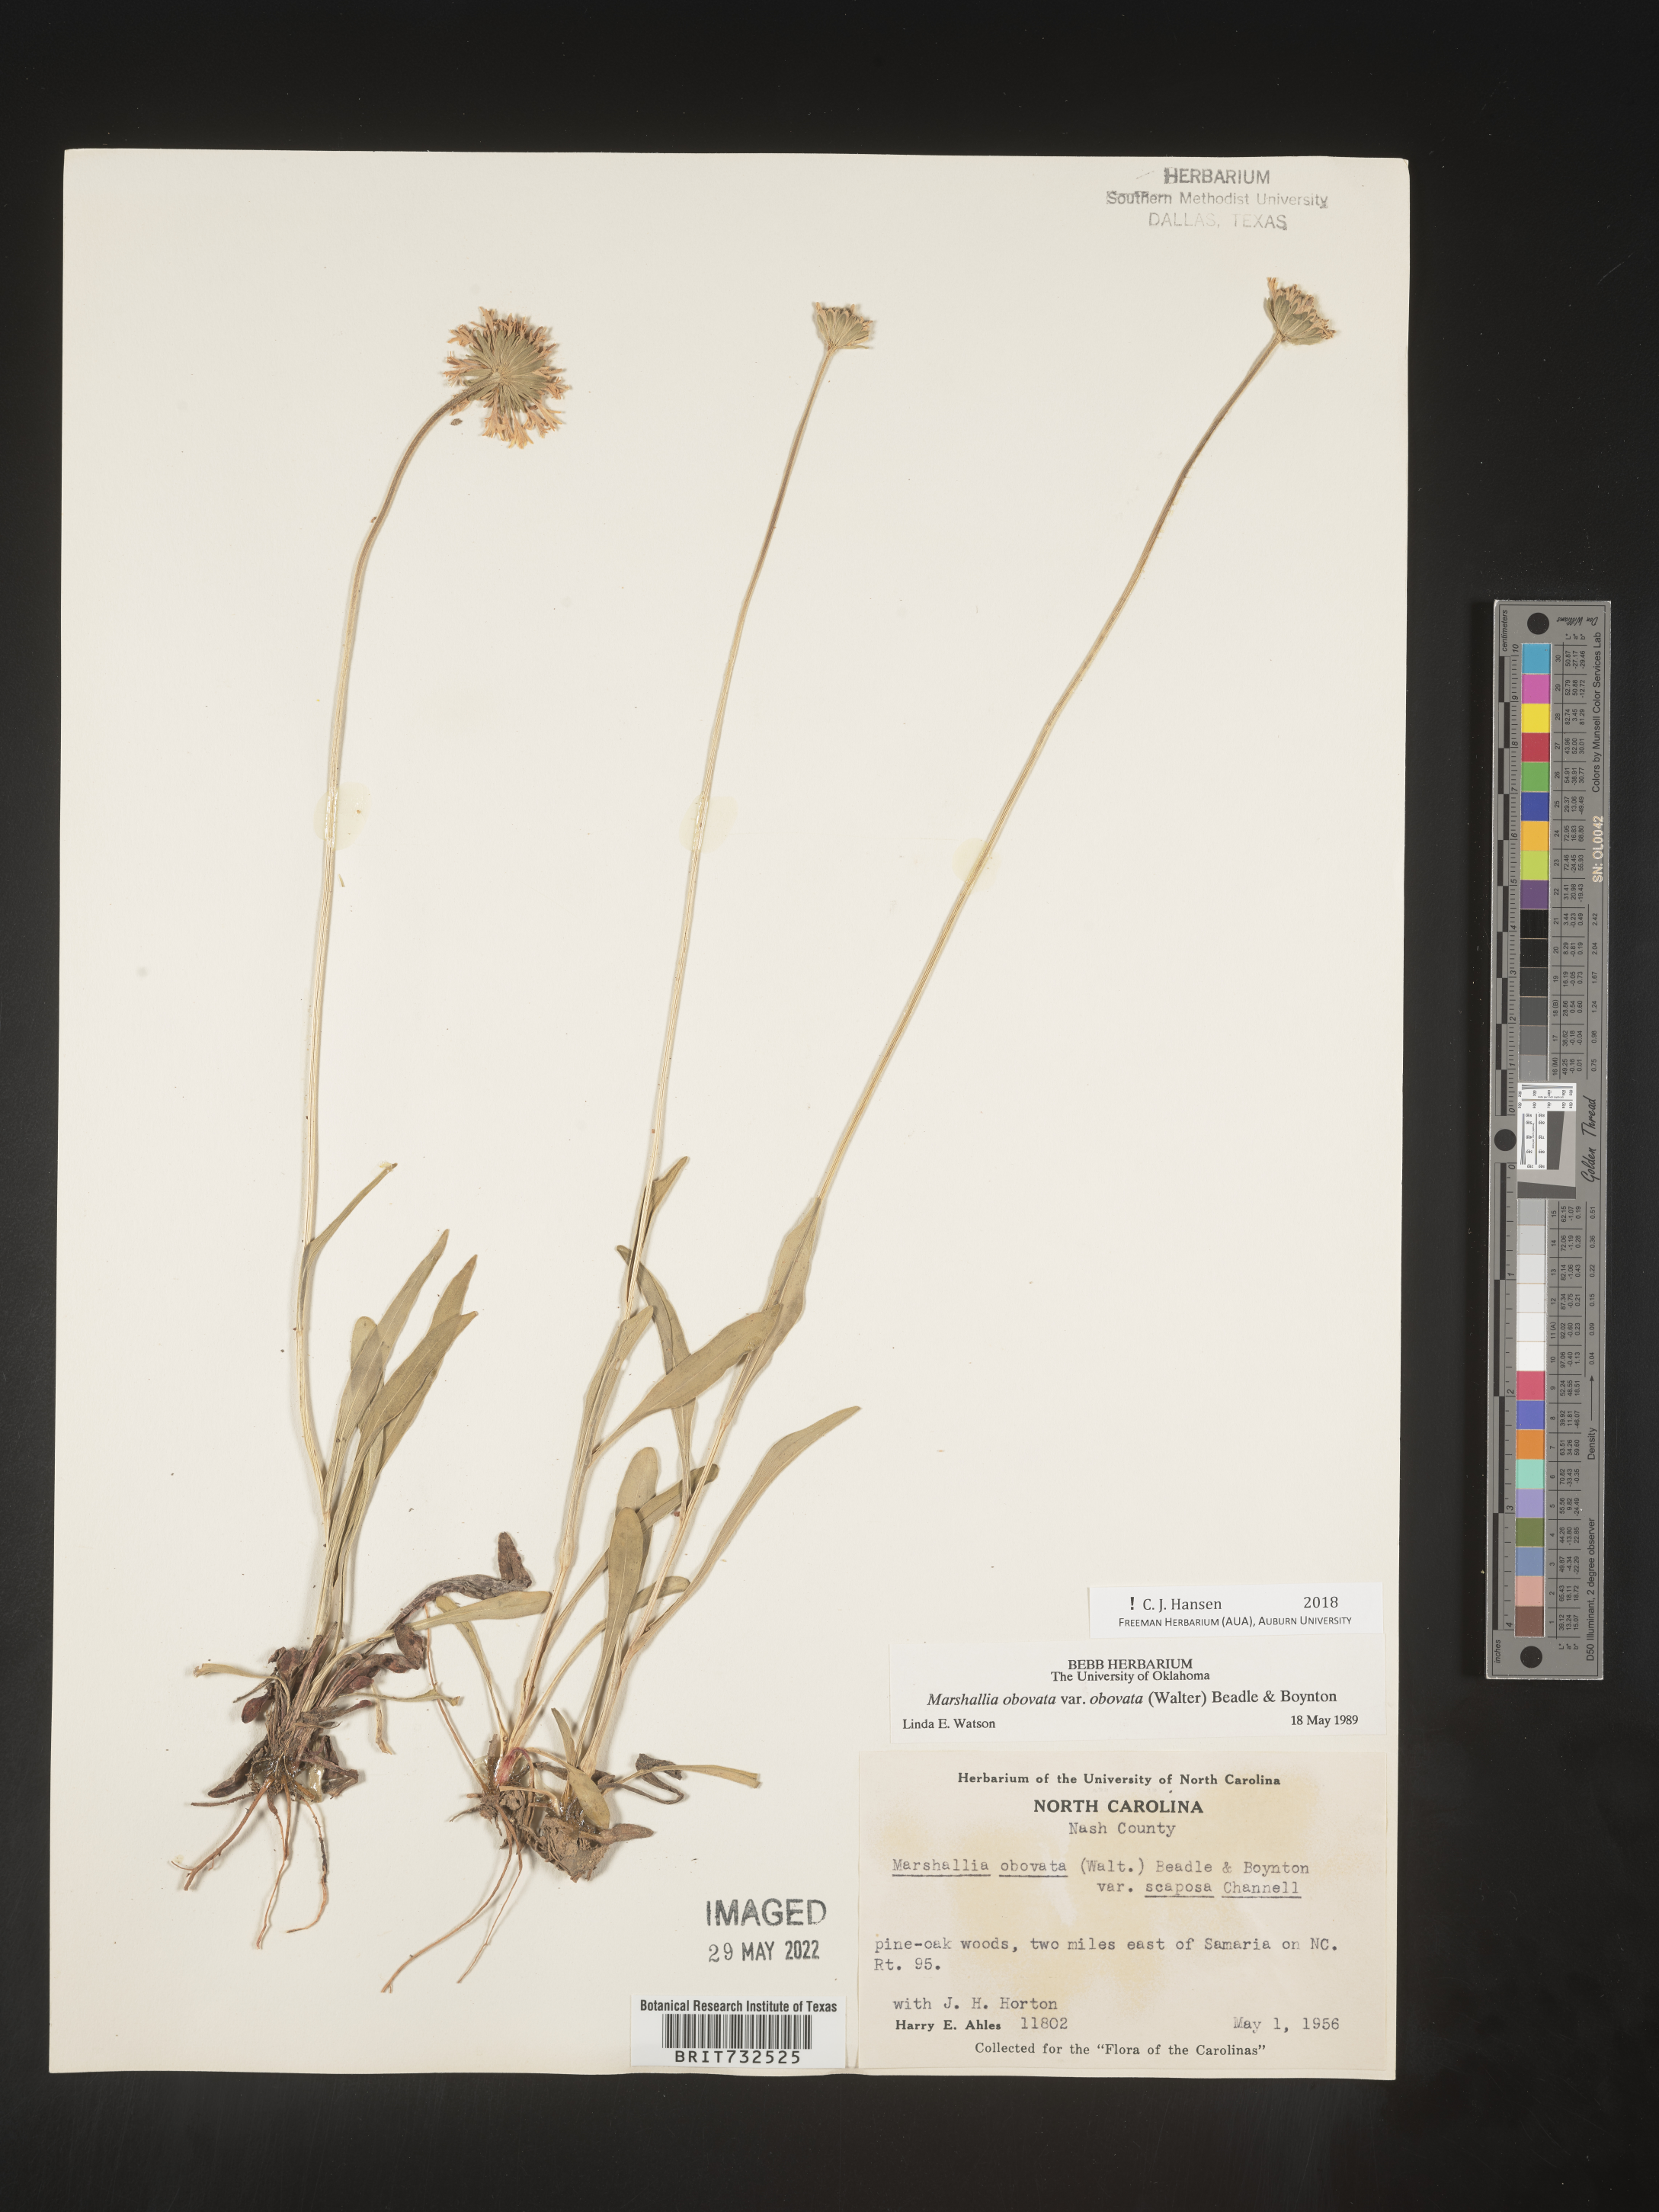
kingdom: Plantae
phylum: Tracheophyta
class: Magnoliopsida
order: Asterales
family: Asteraceae
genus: Marshallia
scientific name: Marshallia obovata
